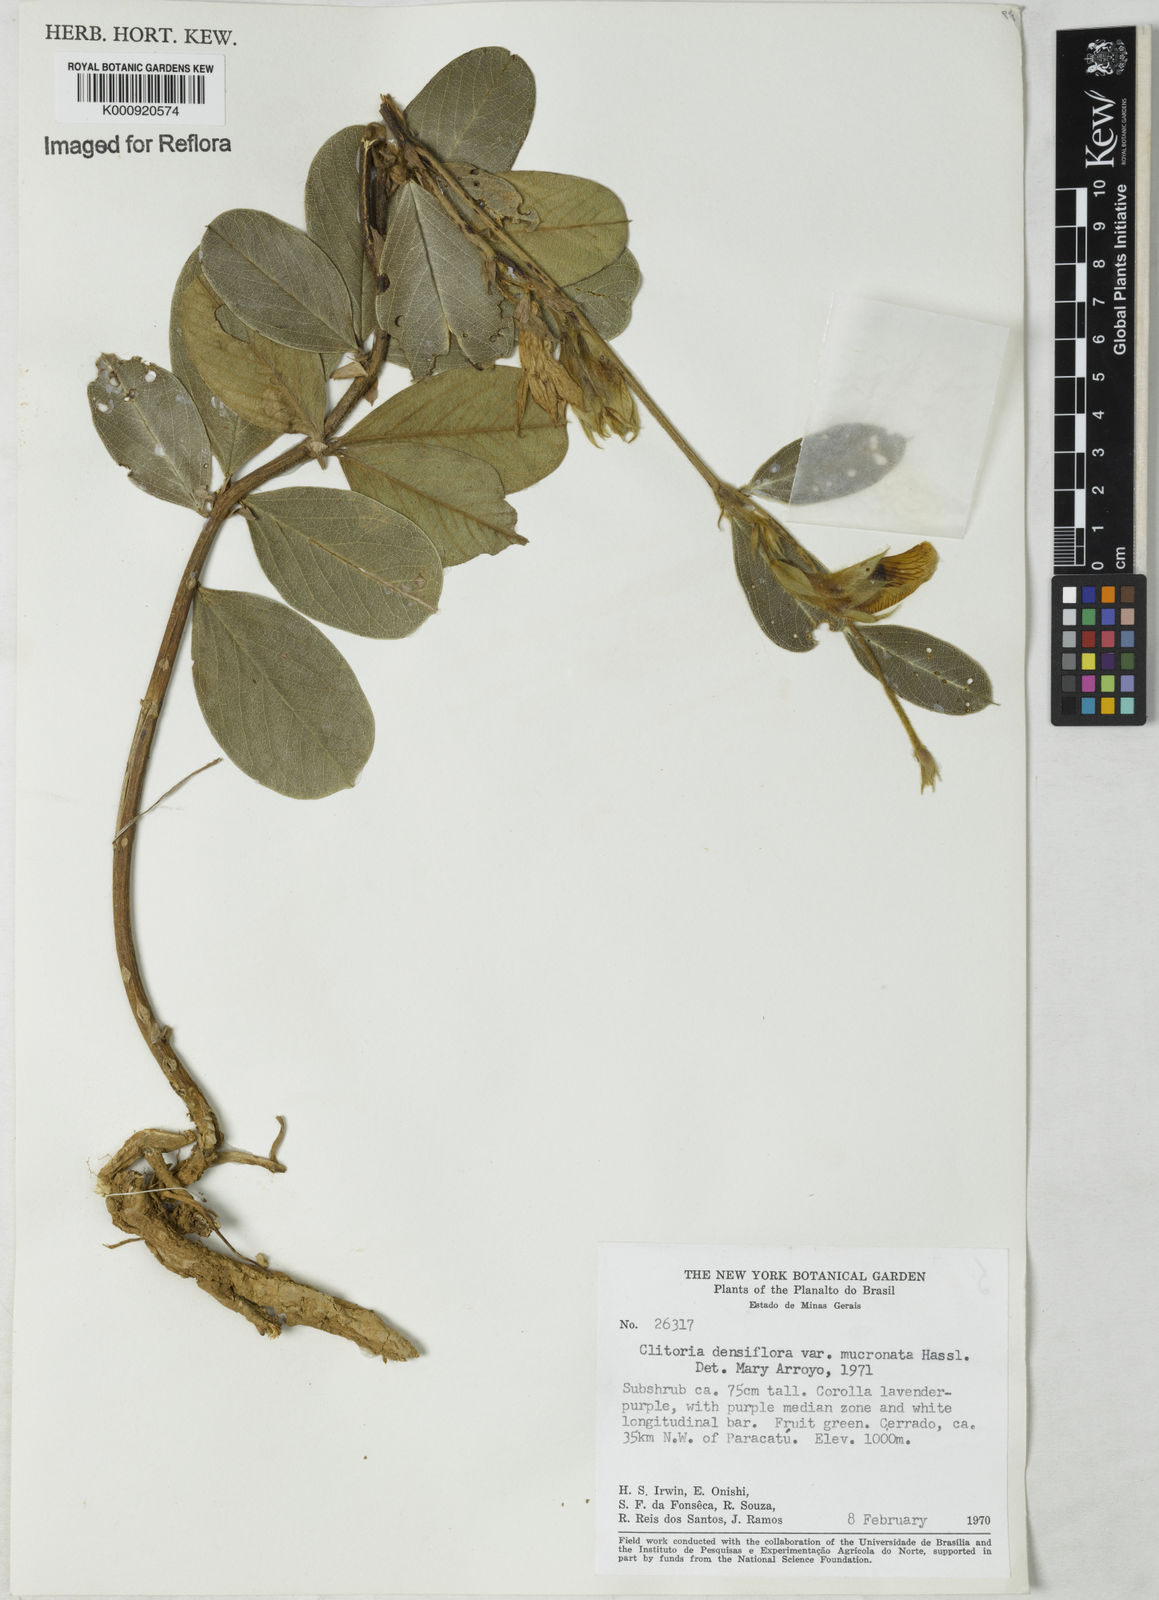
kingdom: Plantae
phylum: Tracheophyta
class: Magnoliopsida
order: Fabales
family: Fabaceae
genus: Clitoria
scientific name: Clitoria
